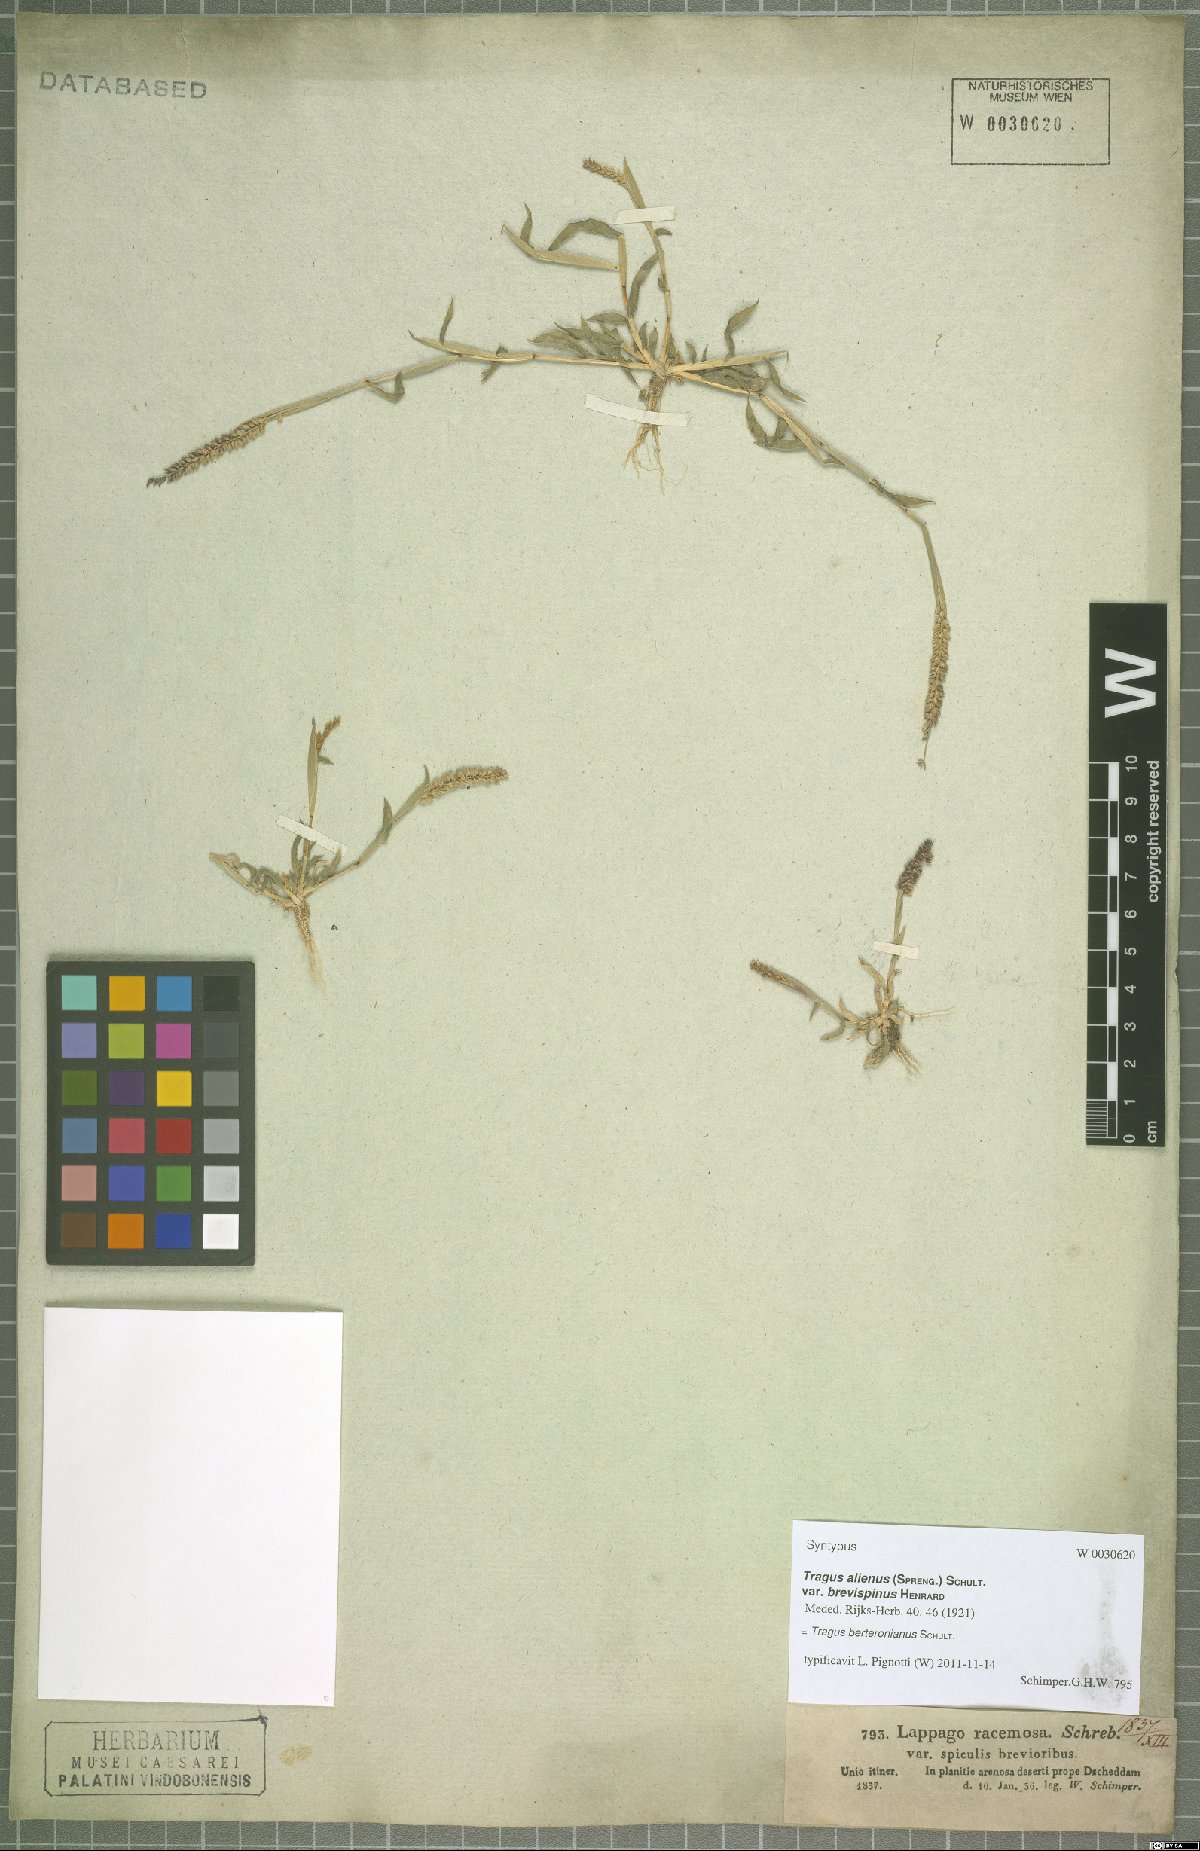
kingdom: Plantae
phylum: Tracheophyta
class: Liliopsida
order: Poales
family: Poaceae
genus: Tragus
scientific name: Tragus berteronianus
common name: African bur-grass
